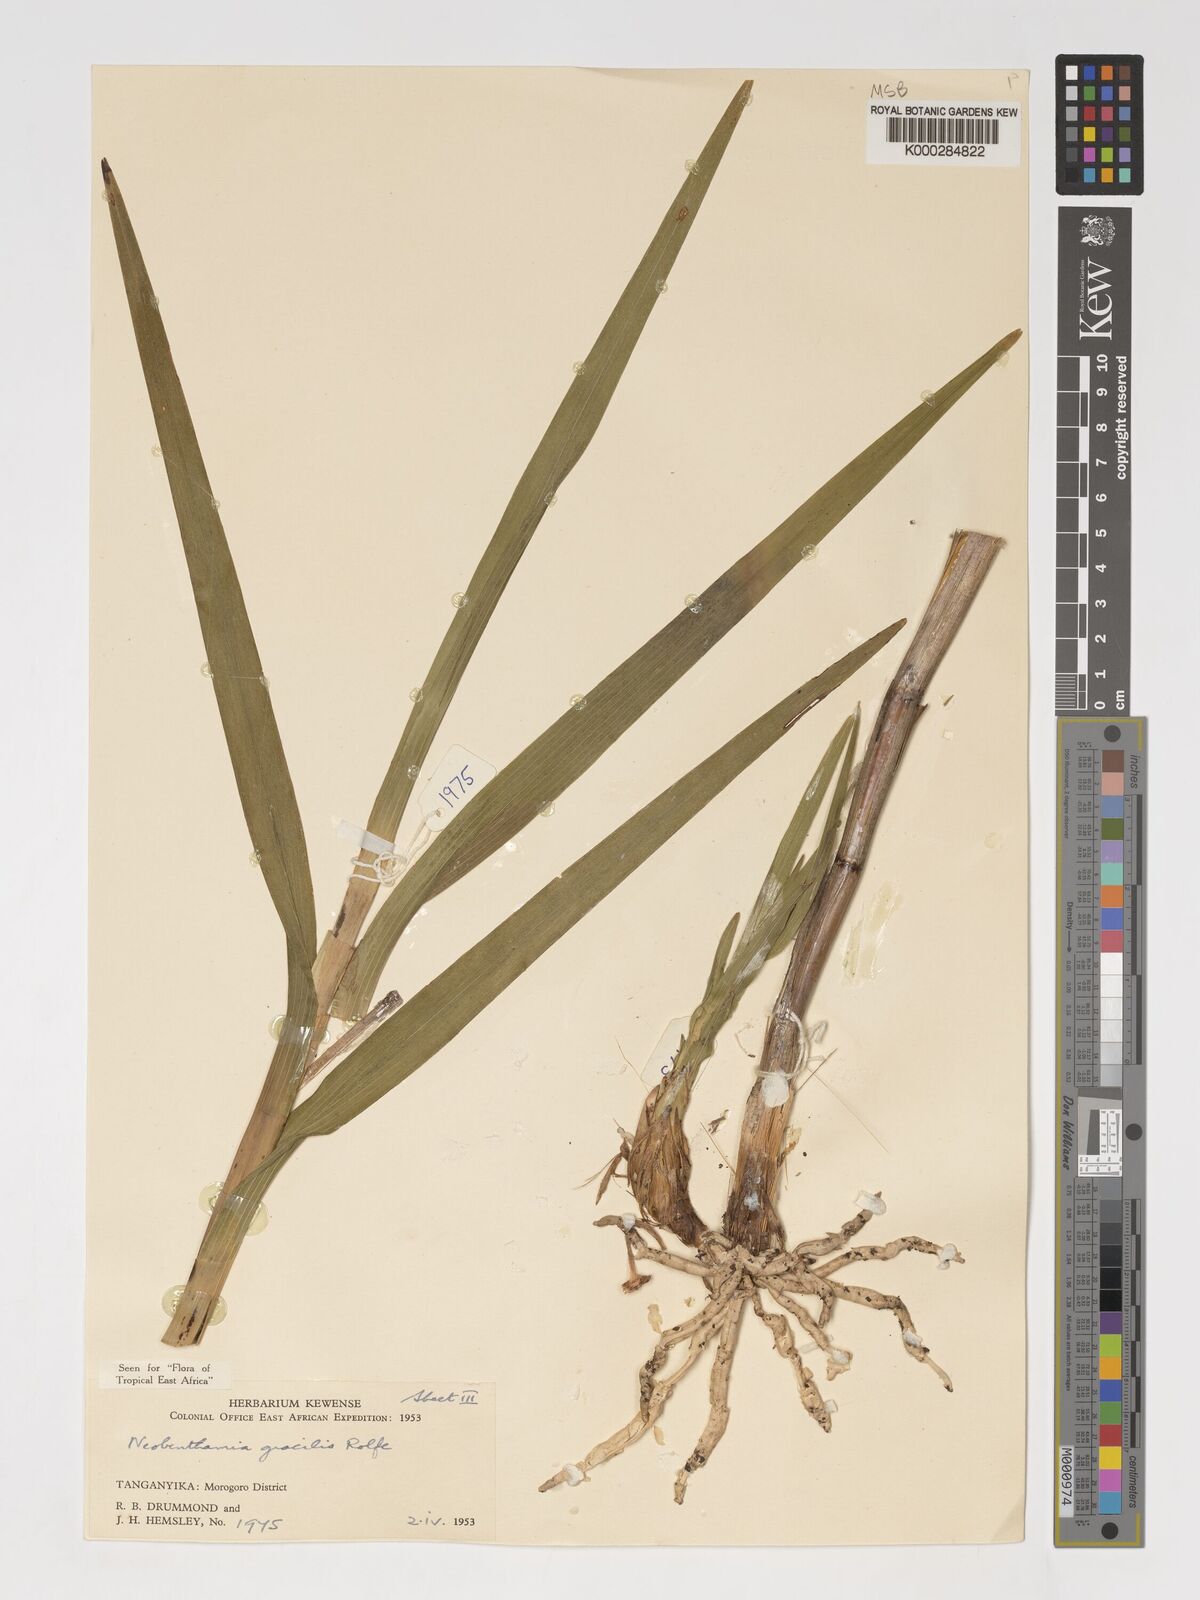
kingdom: Plantae
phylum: Tracheophyta
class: Liliopsida
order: Asparagales
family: Orchidaceae
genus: Polystachya
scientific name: Polystachya neobenthamia
